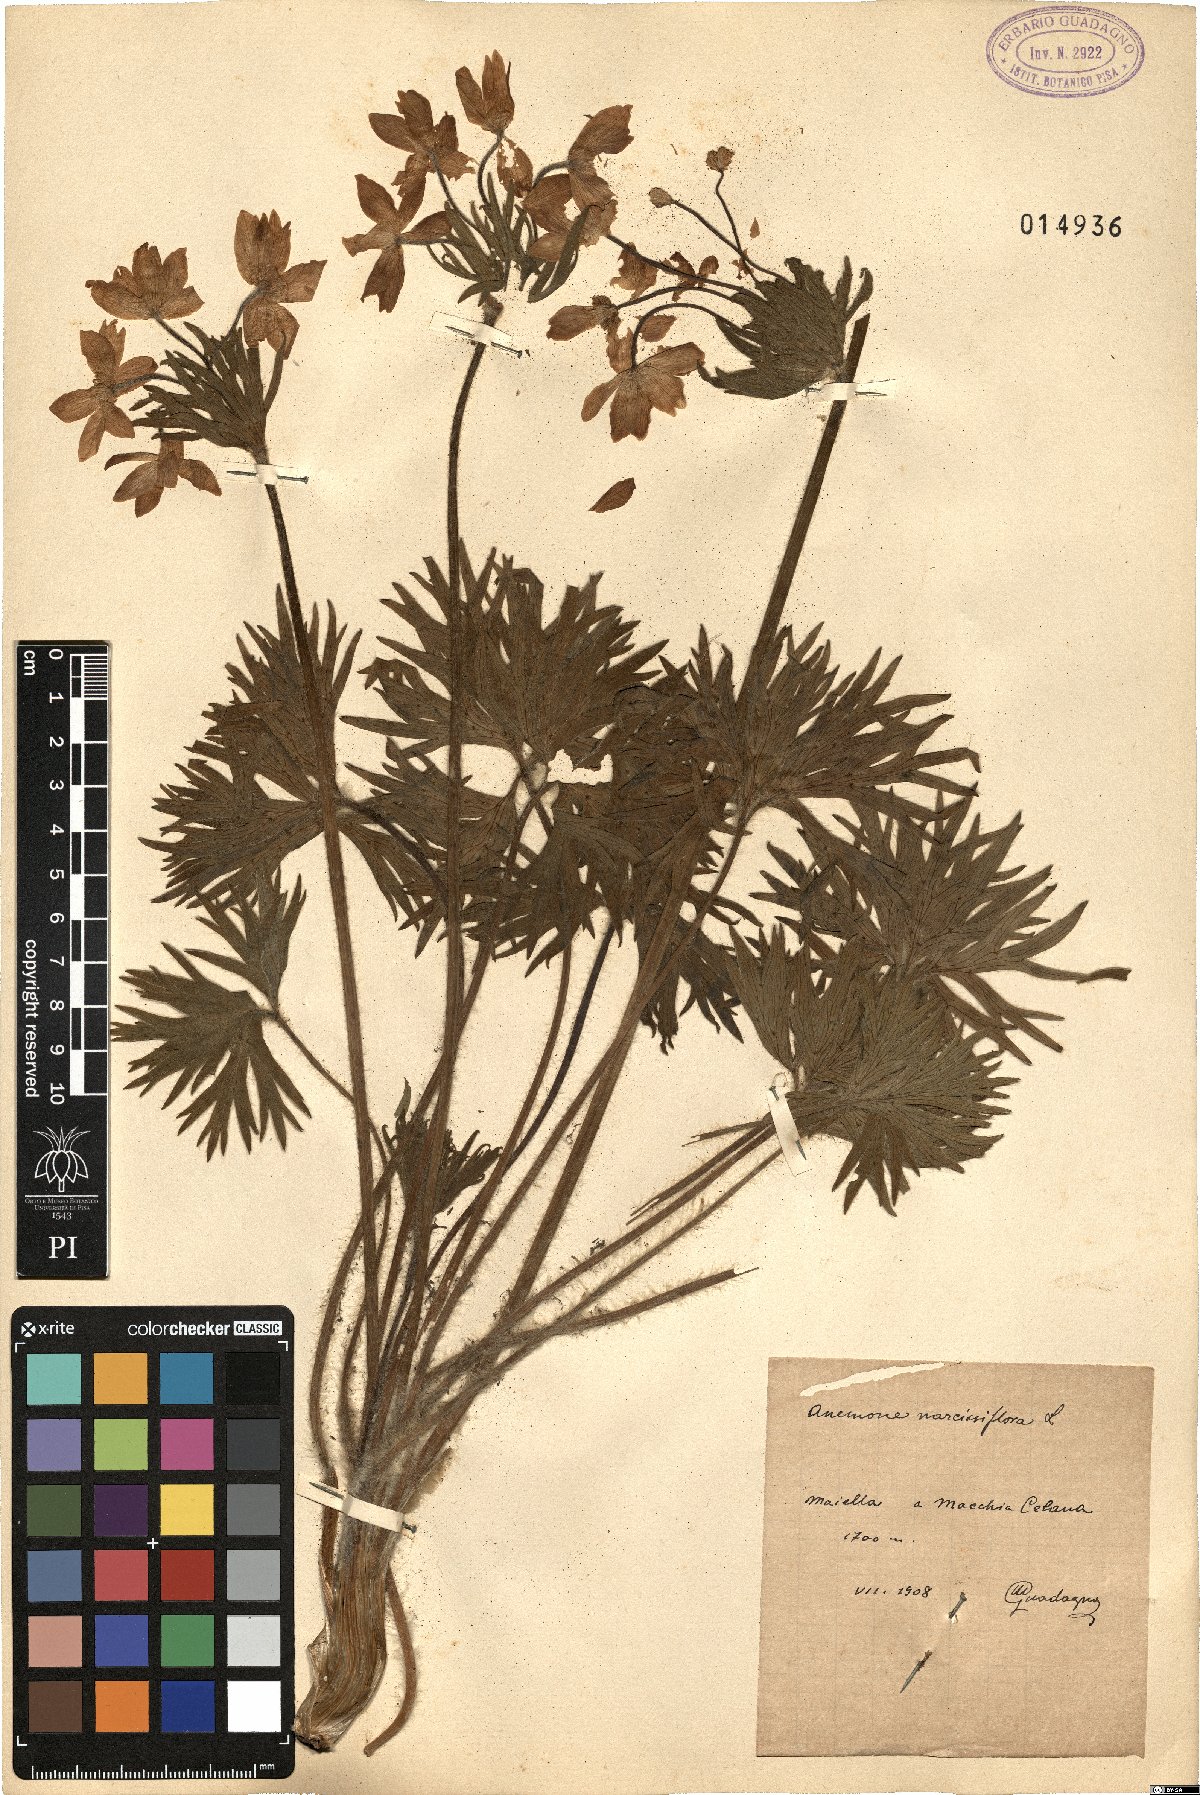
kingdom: Plantae
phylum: Tracheophyta
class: Magnoliopsida
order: Ranunculales
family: Ranunculaceae
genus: Anemonastrum
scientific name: Anemonastrum narcissiflorum
